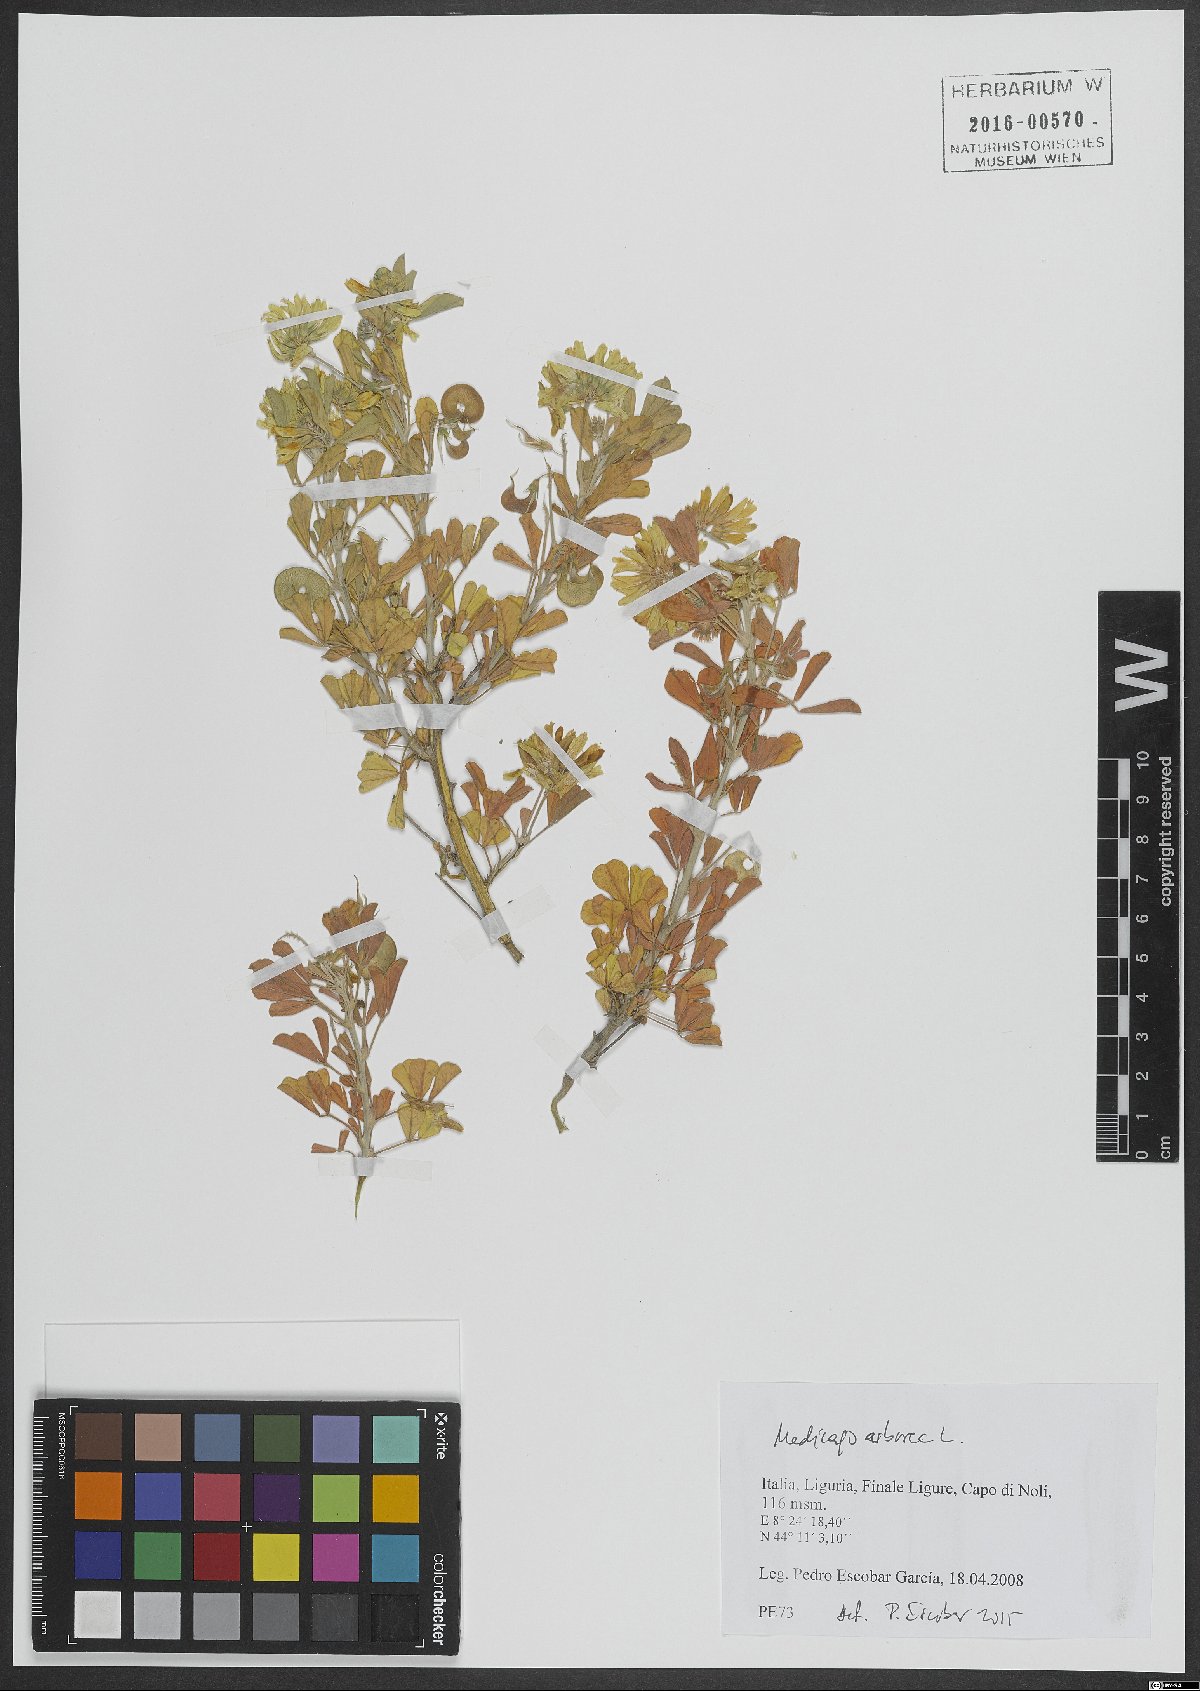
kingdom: Plantae
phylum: Tracheophyta
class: Magnoliopsida
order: Fabales
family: Fabaceae
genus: Medicago
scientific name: Medicago arborea
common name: Moon trefoil
